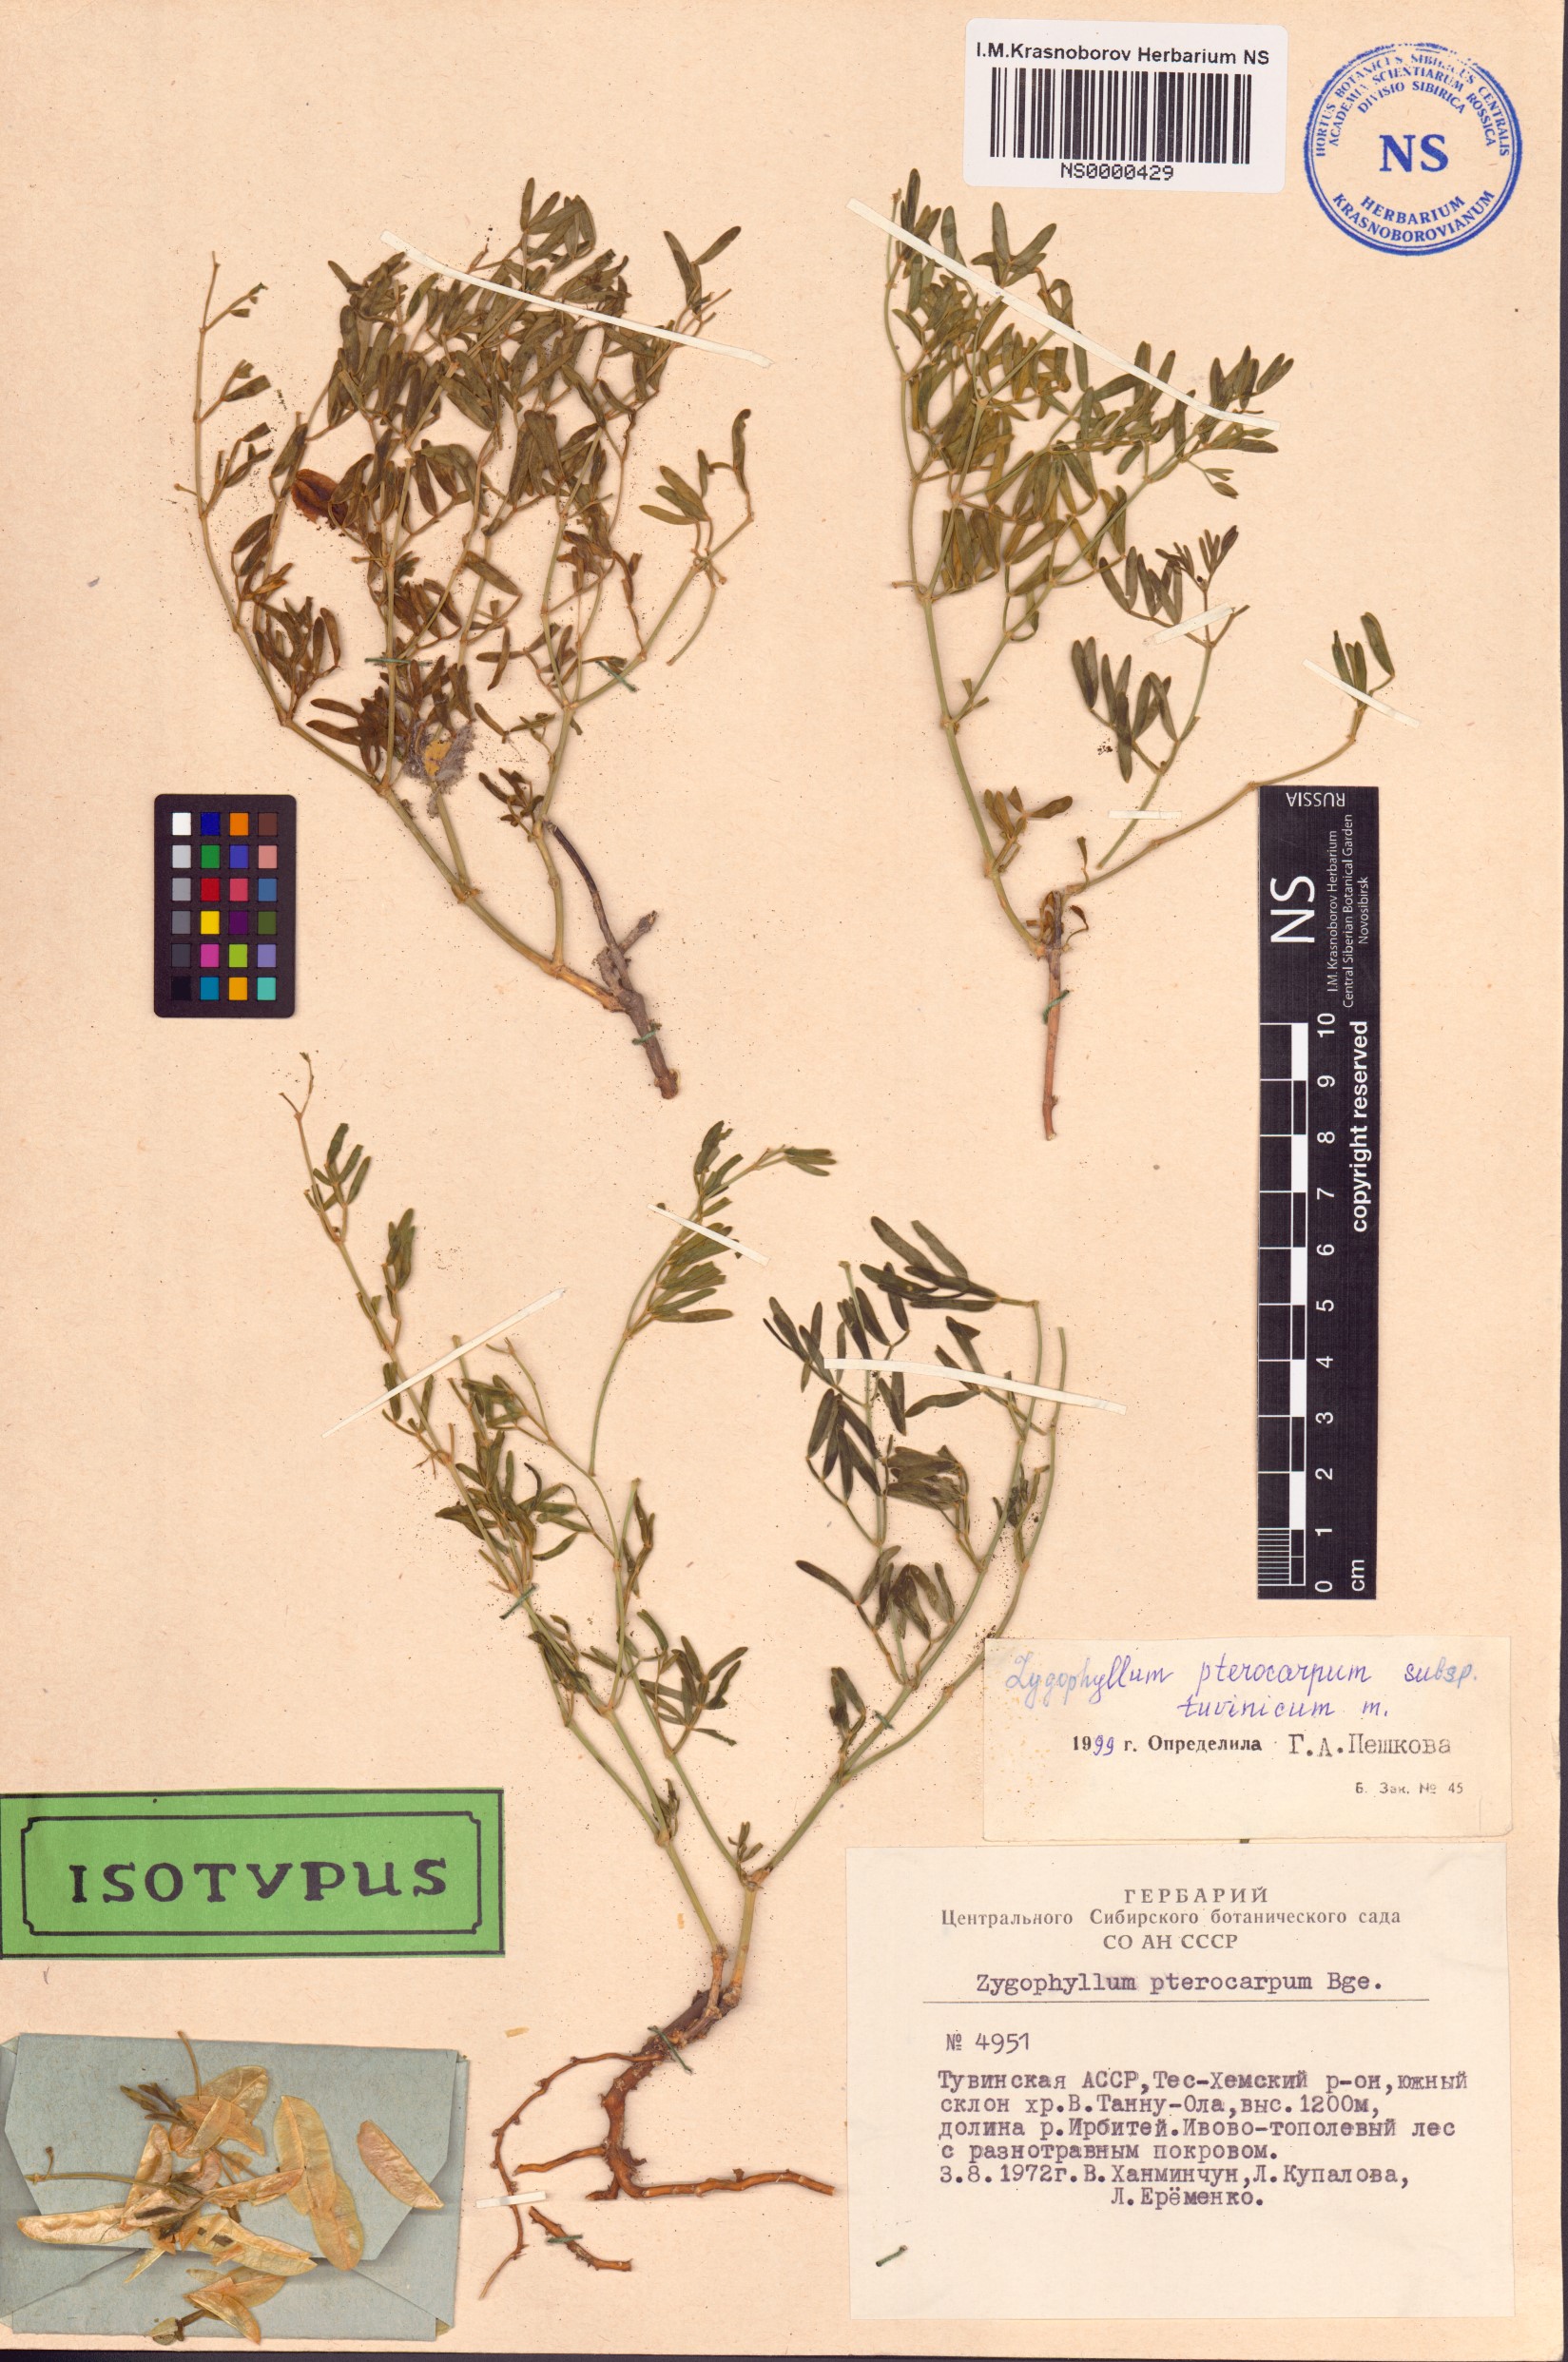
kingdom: Plantae
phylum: Tracheophyta
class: Magnoliopsida
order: Zygophyllales
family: Zygophyllaceae
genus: Zygophyllum
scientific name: Zygophyllum pterocarpum
